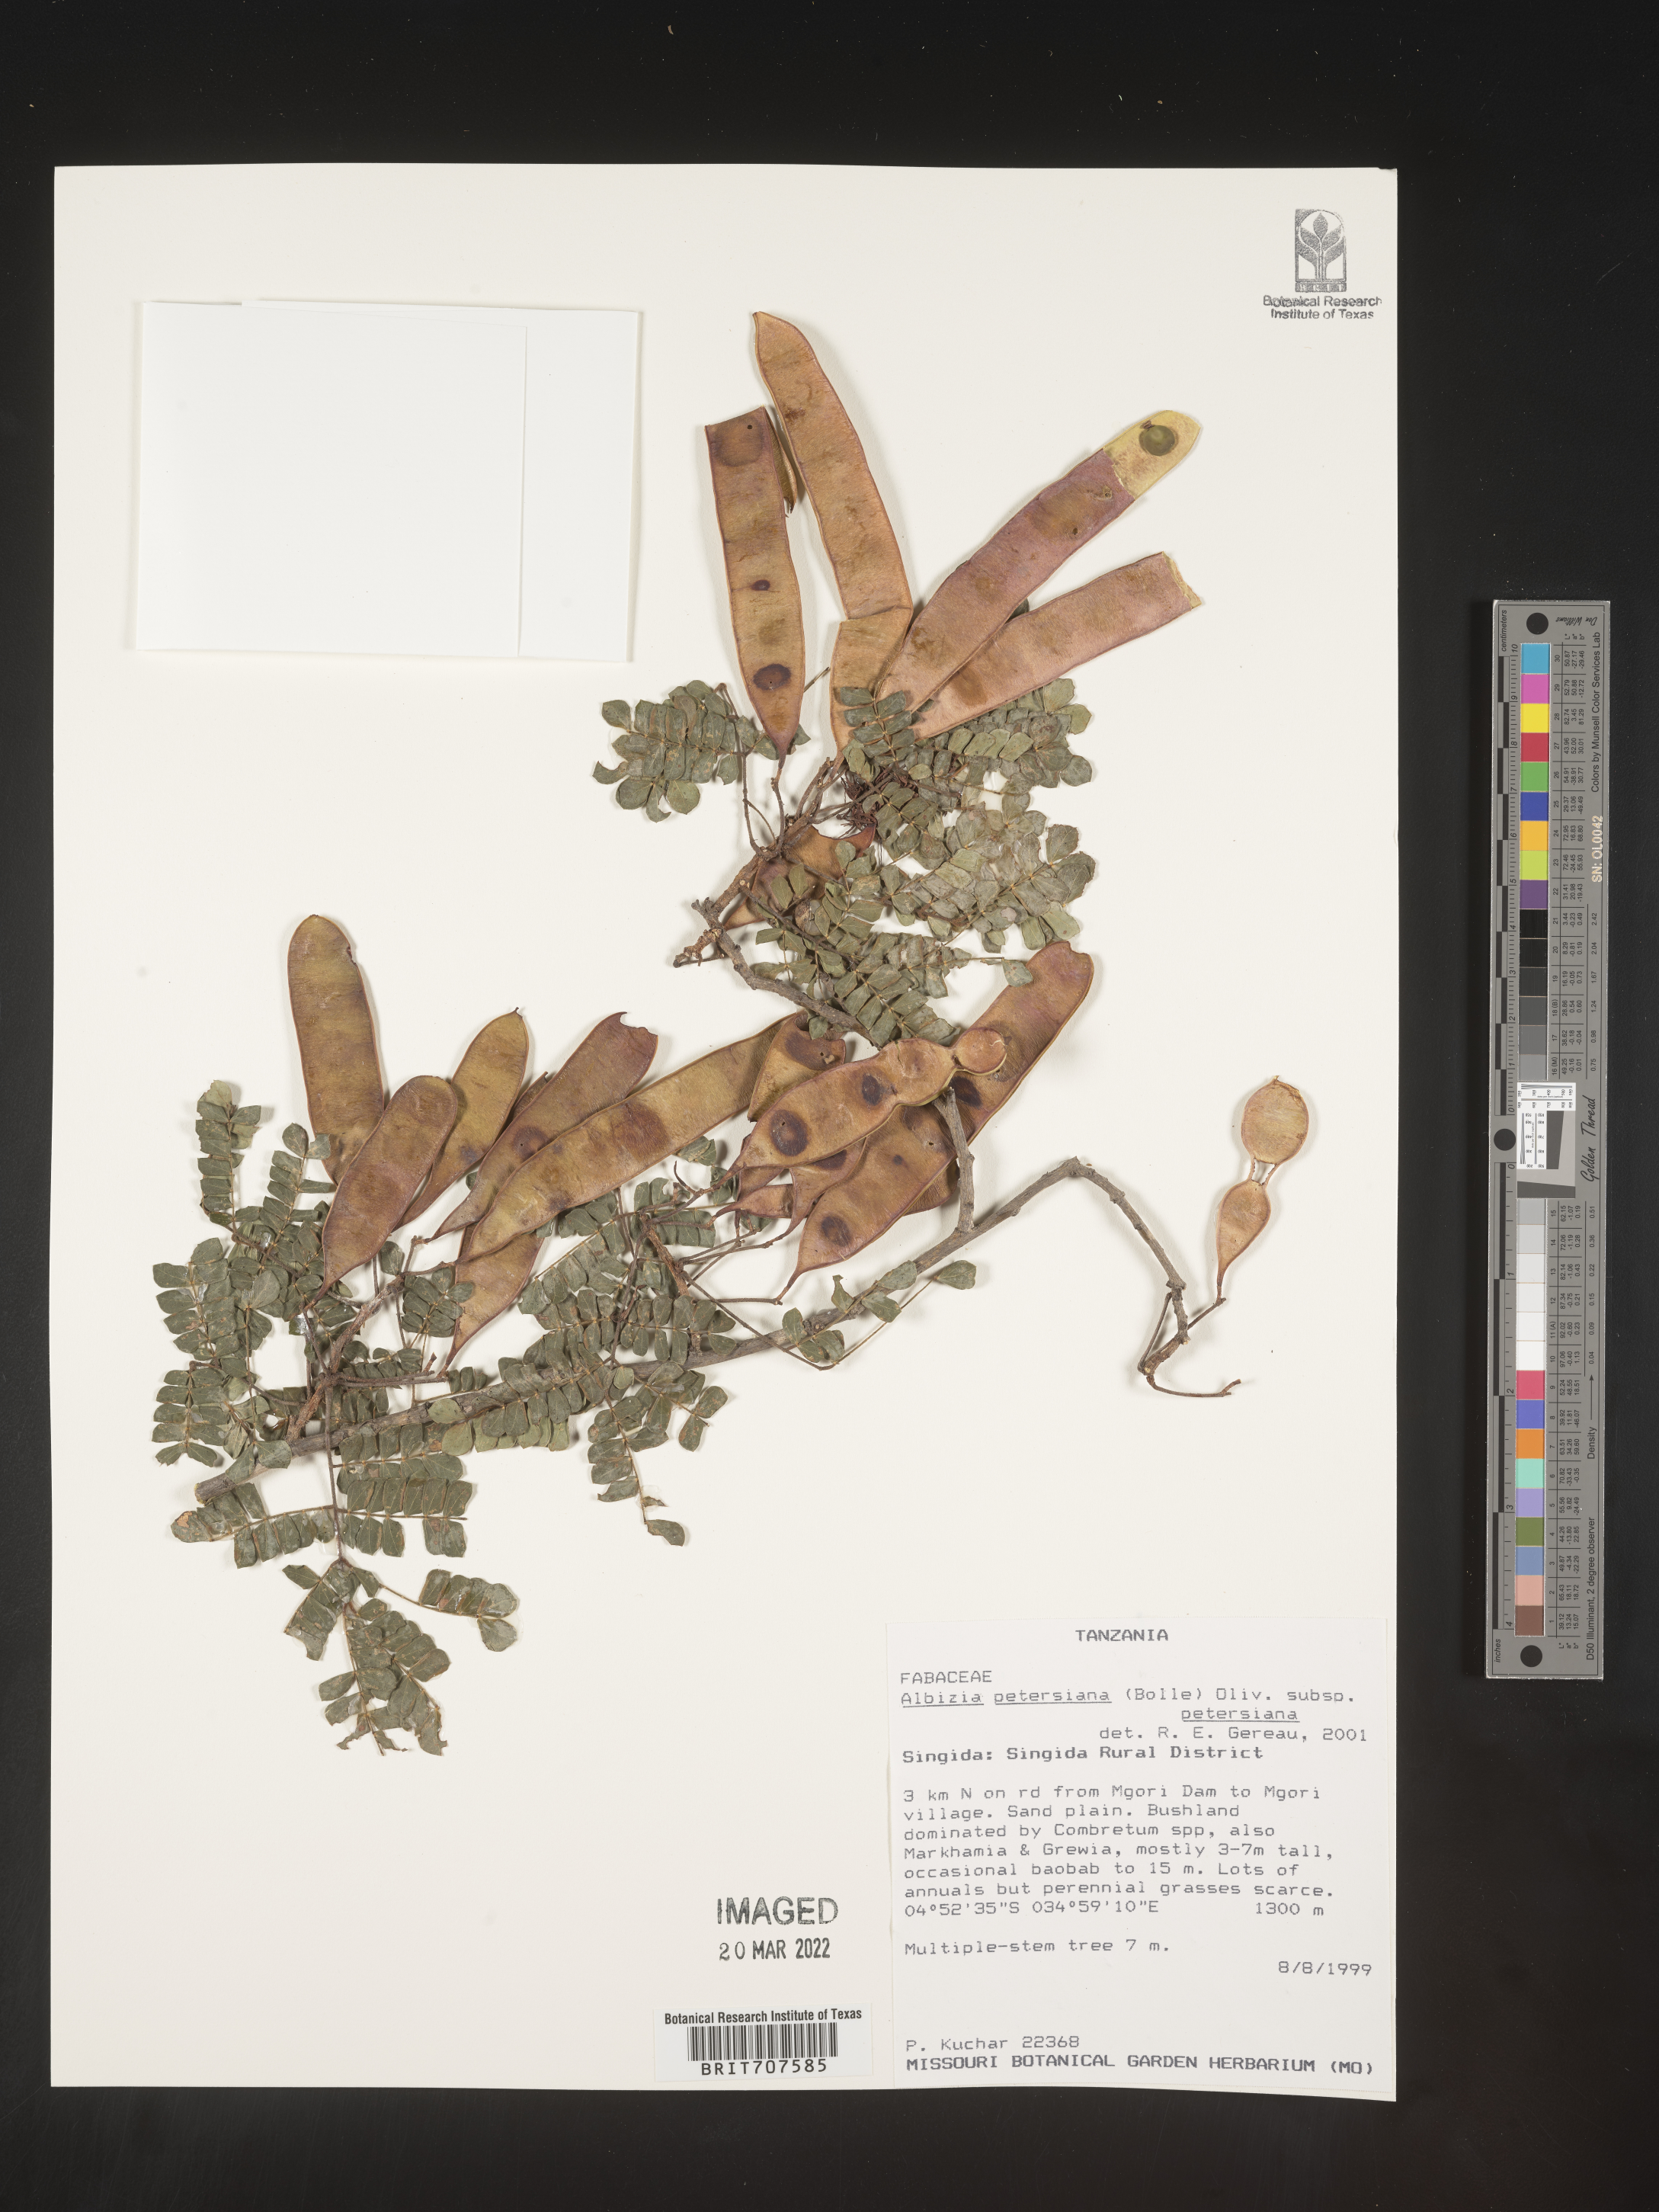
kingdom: Plantae
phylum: Tracheophyta
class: Magnoliopsida
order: Fabales
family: Fabaceae
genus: Albizia
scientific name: Albizia
